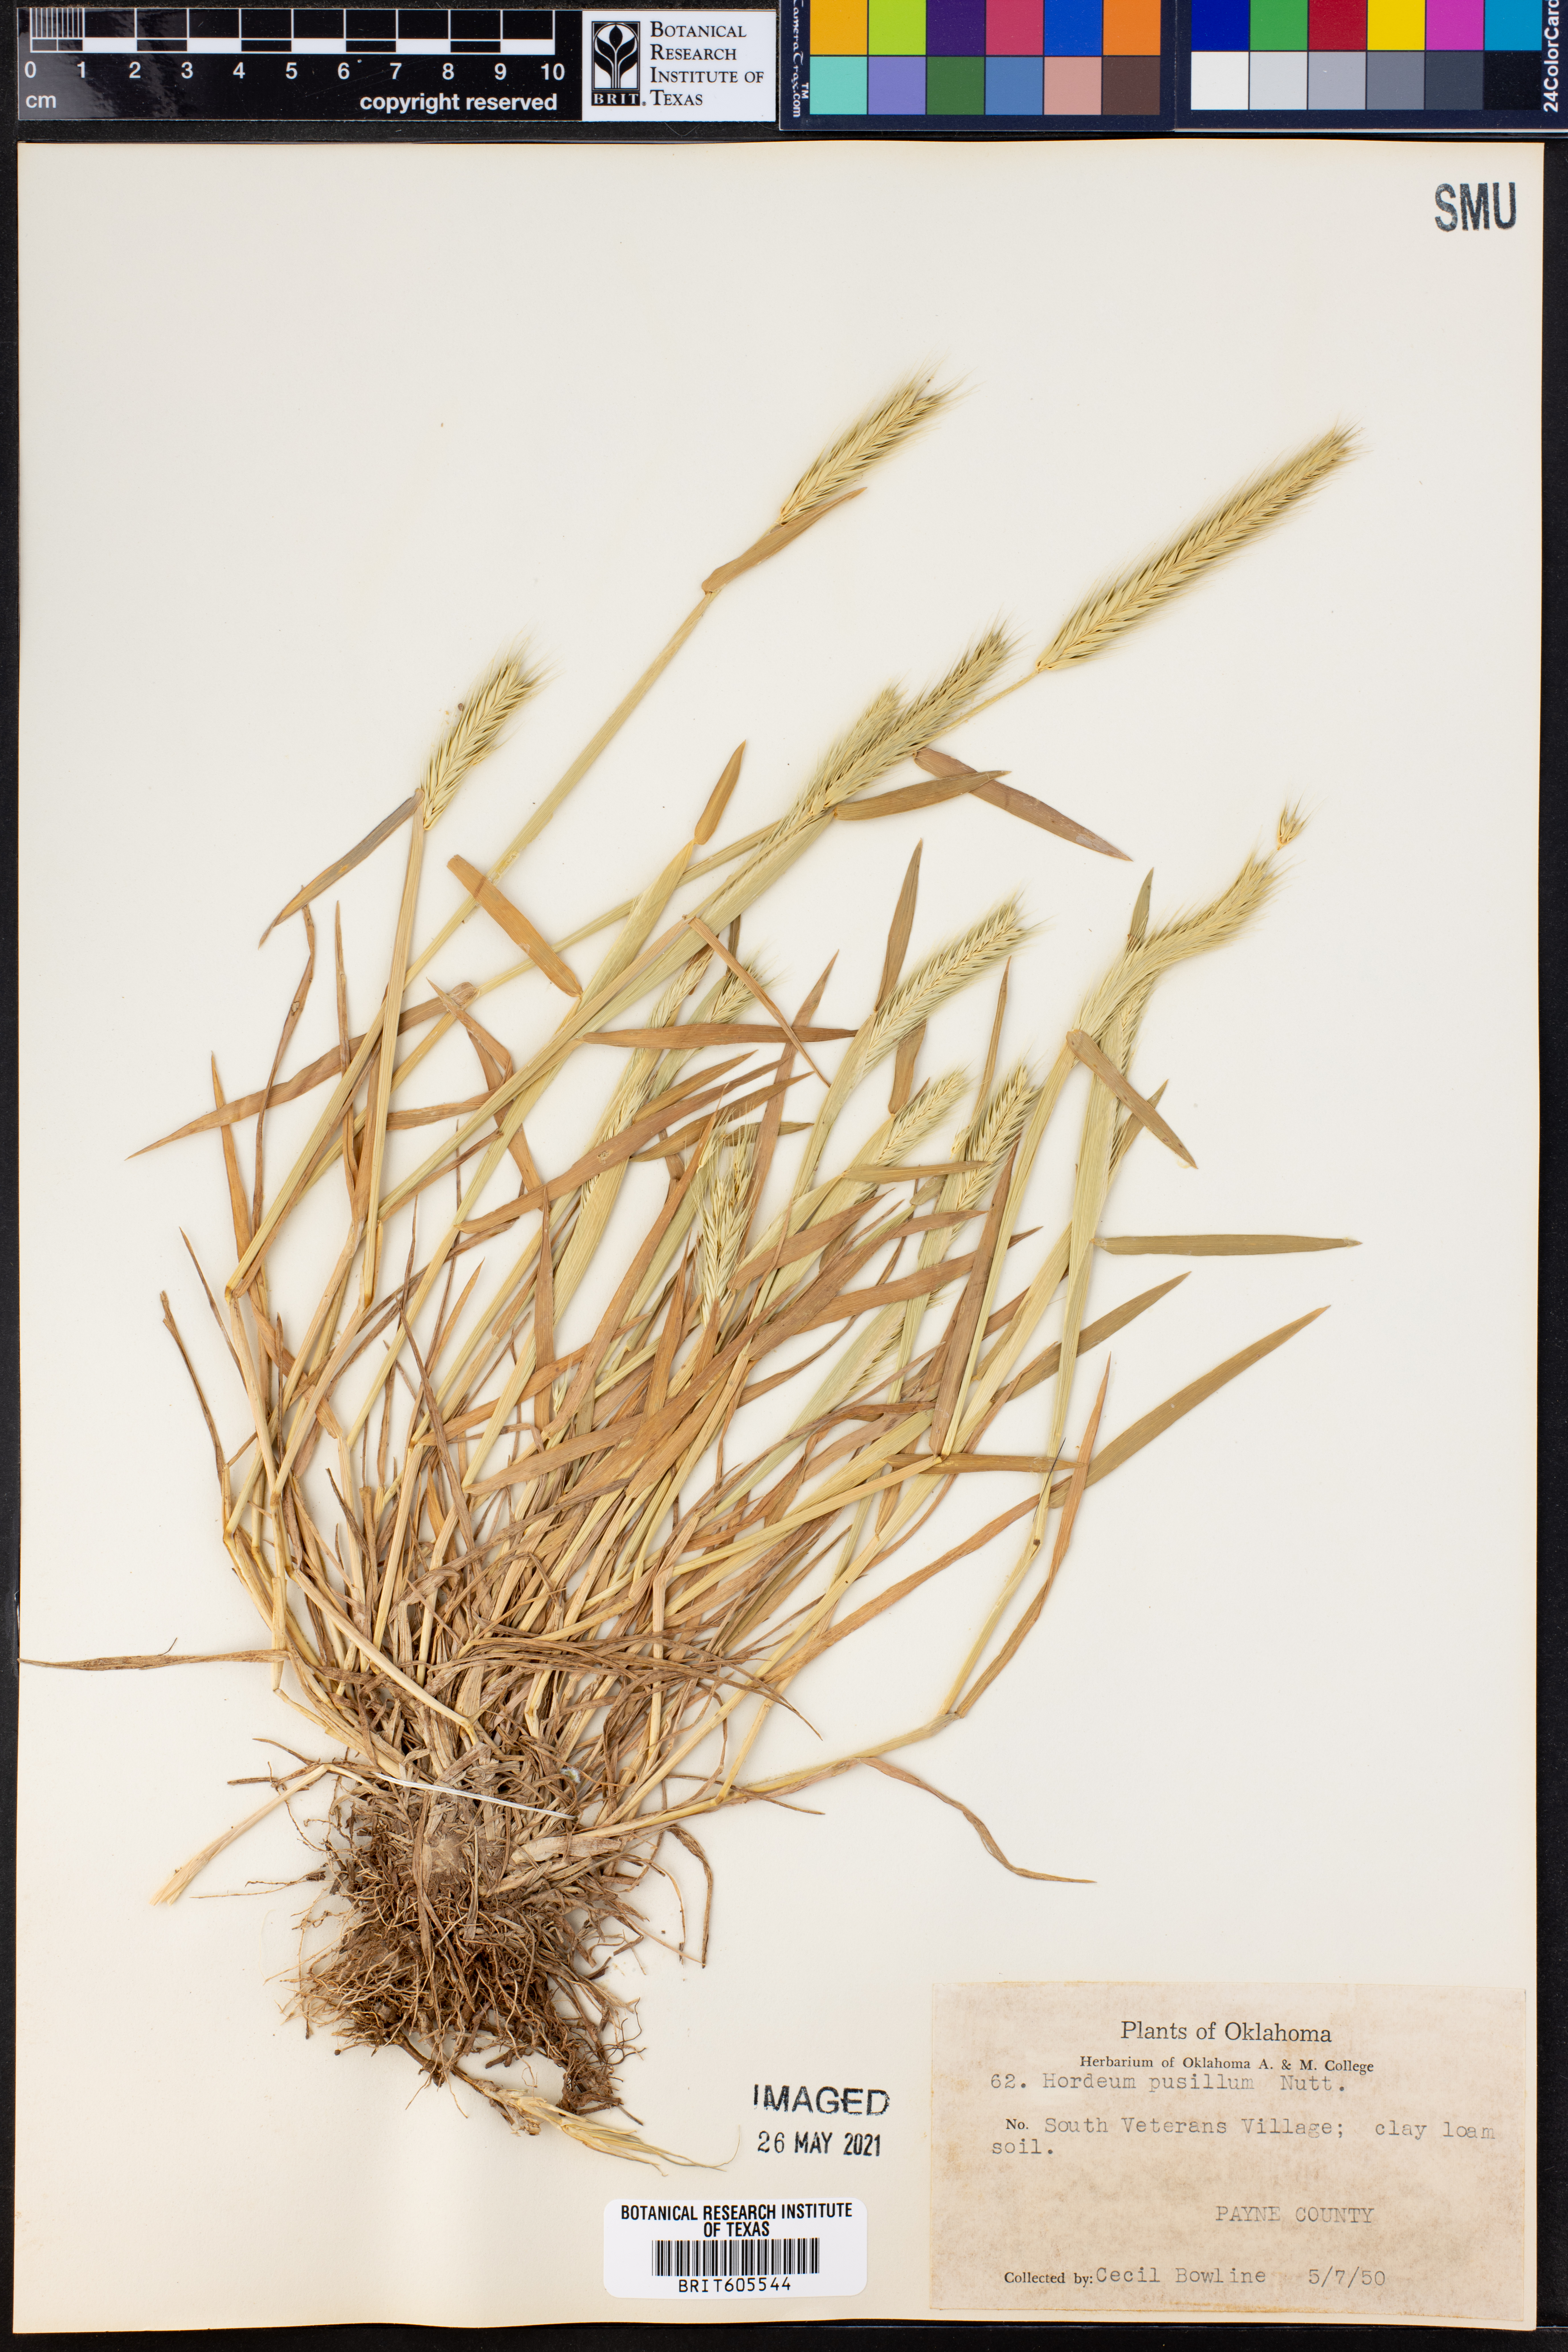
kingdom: Plantae
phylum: Tracheophyta
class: Liliopsida
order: Poales
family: Poaceae
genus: Hordeum
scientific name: Hordeum pusillum
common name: Little barley
